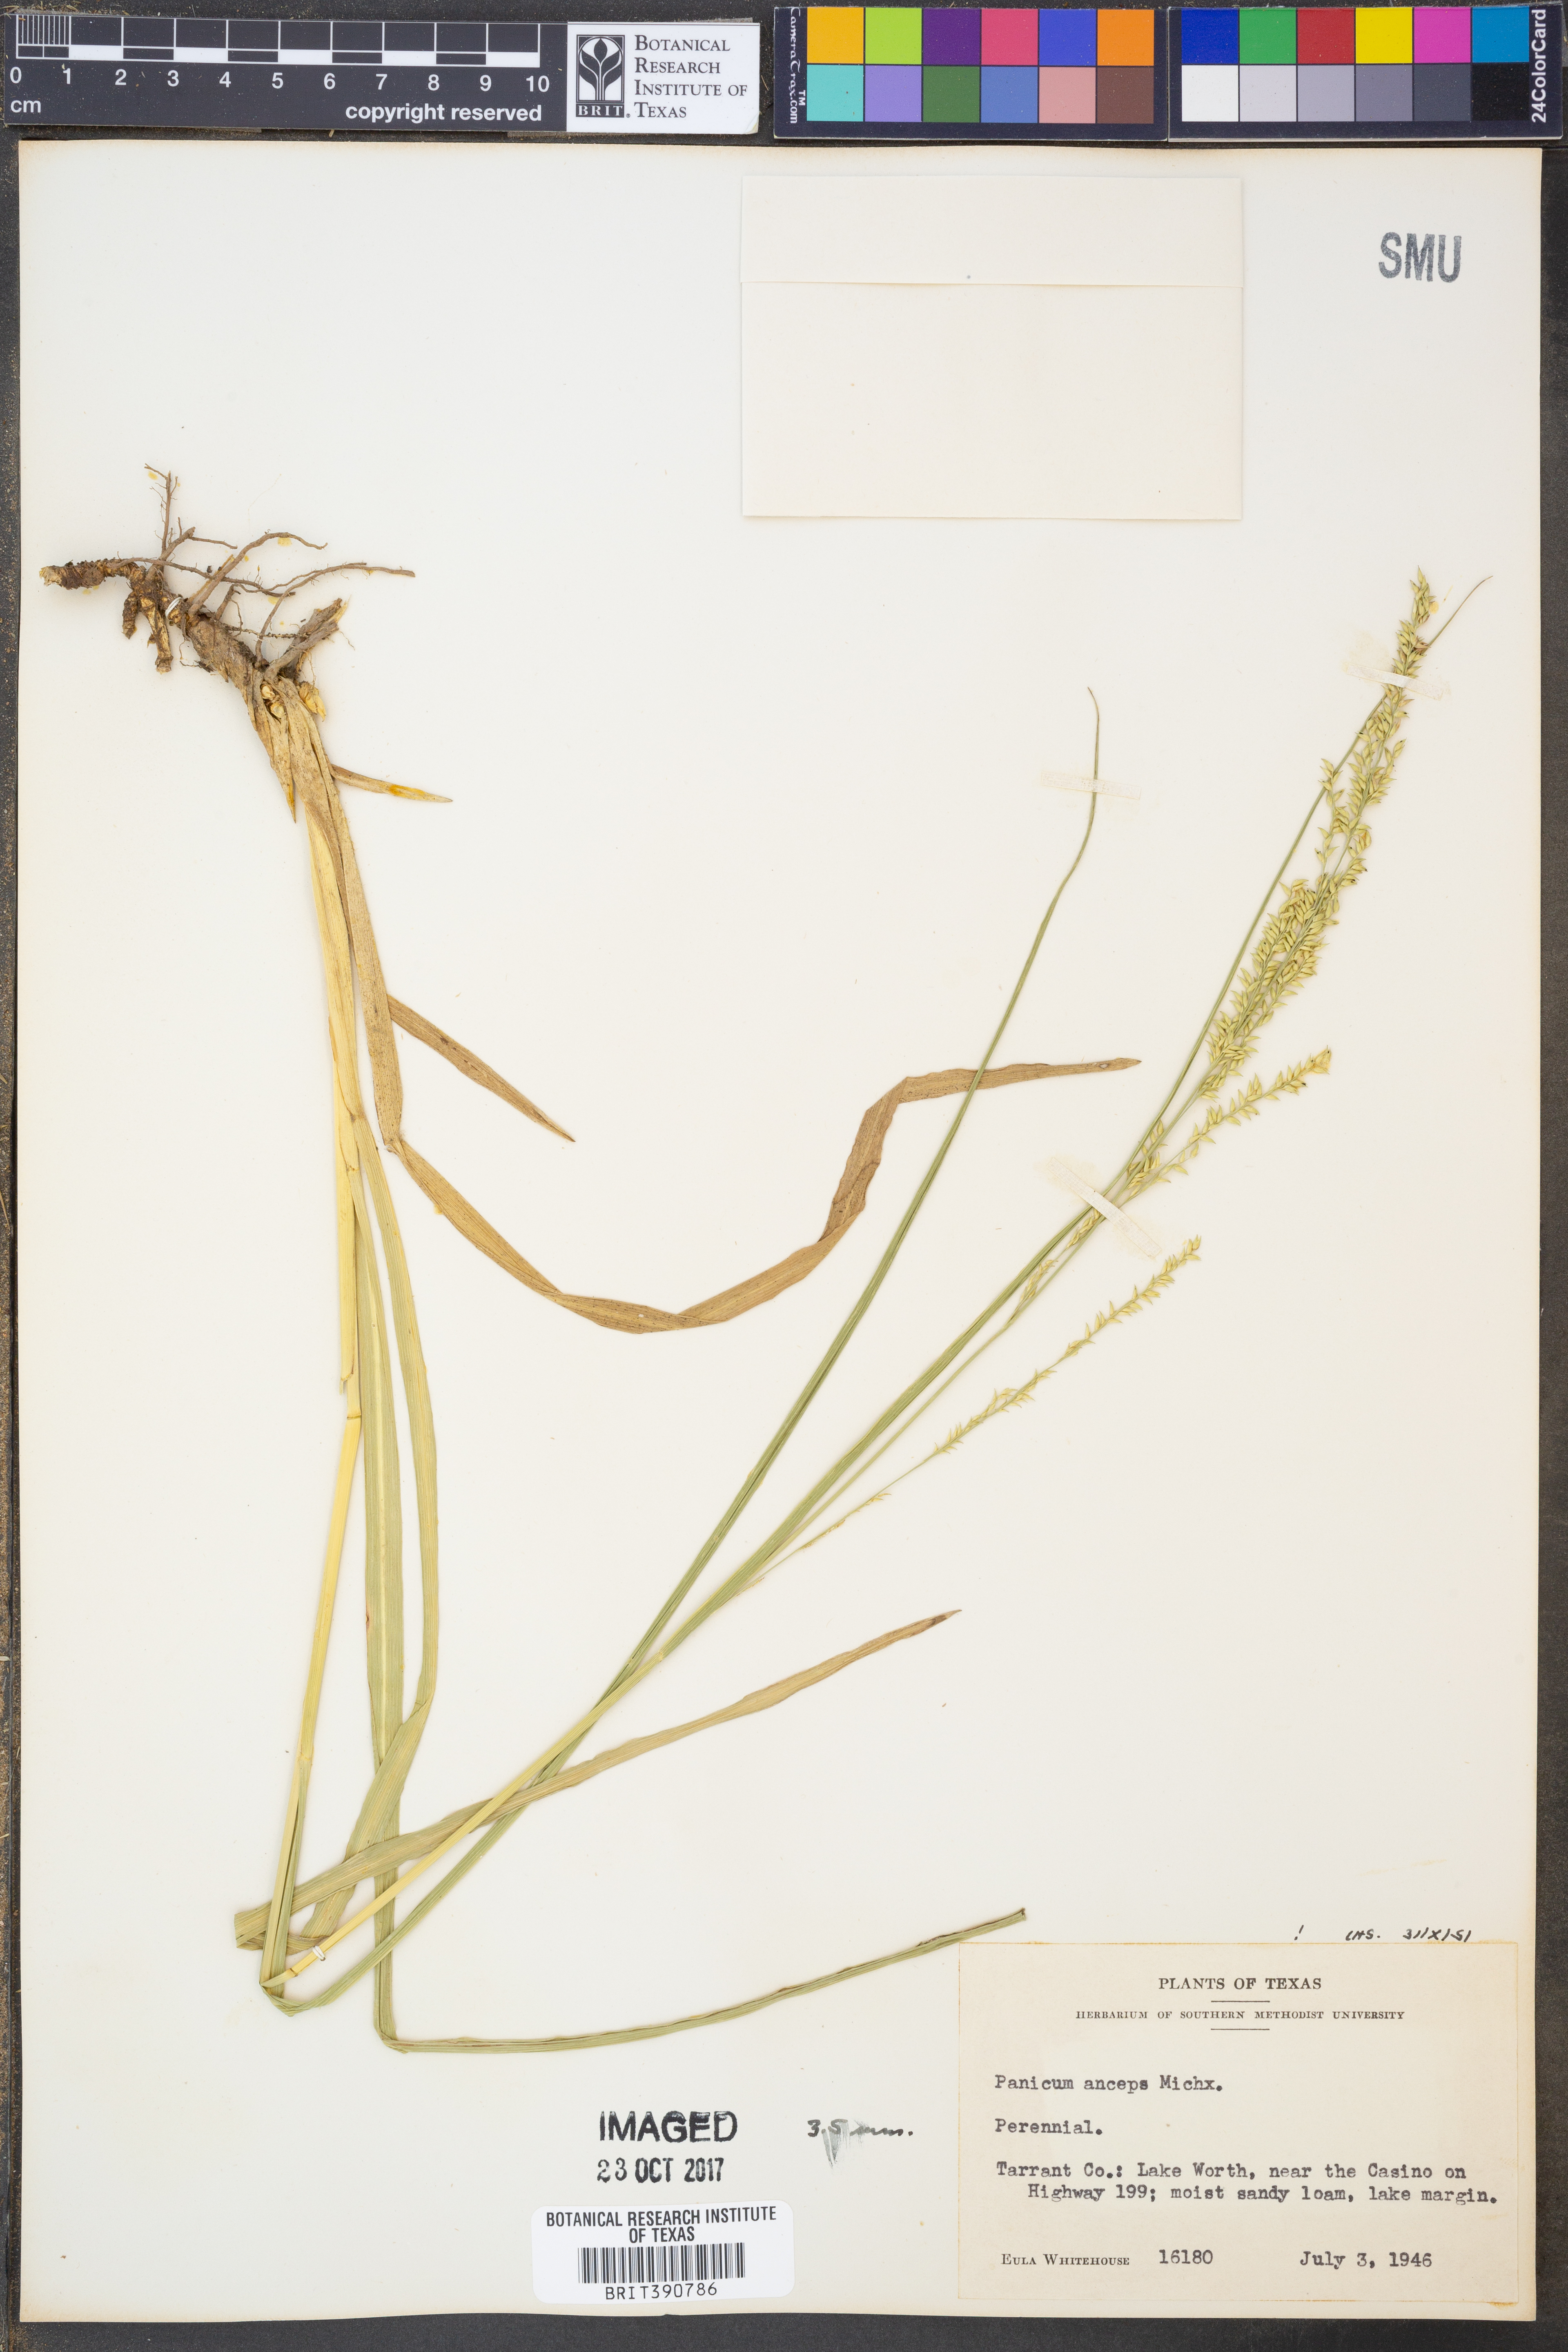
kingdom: Plantae
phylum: Tracheophyta
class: Liliopsida
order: Poales
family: Poaceae
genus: Coleataenia
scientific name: Coleataenia anceps
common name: Beaked panic grass
